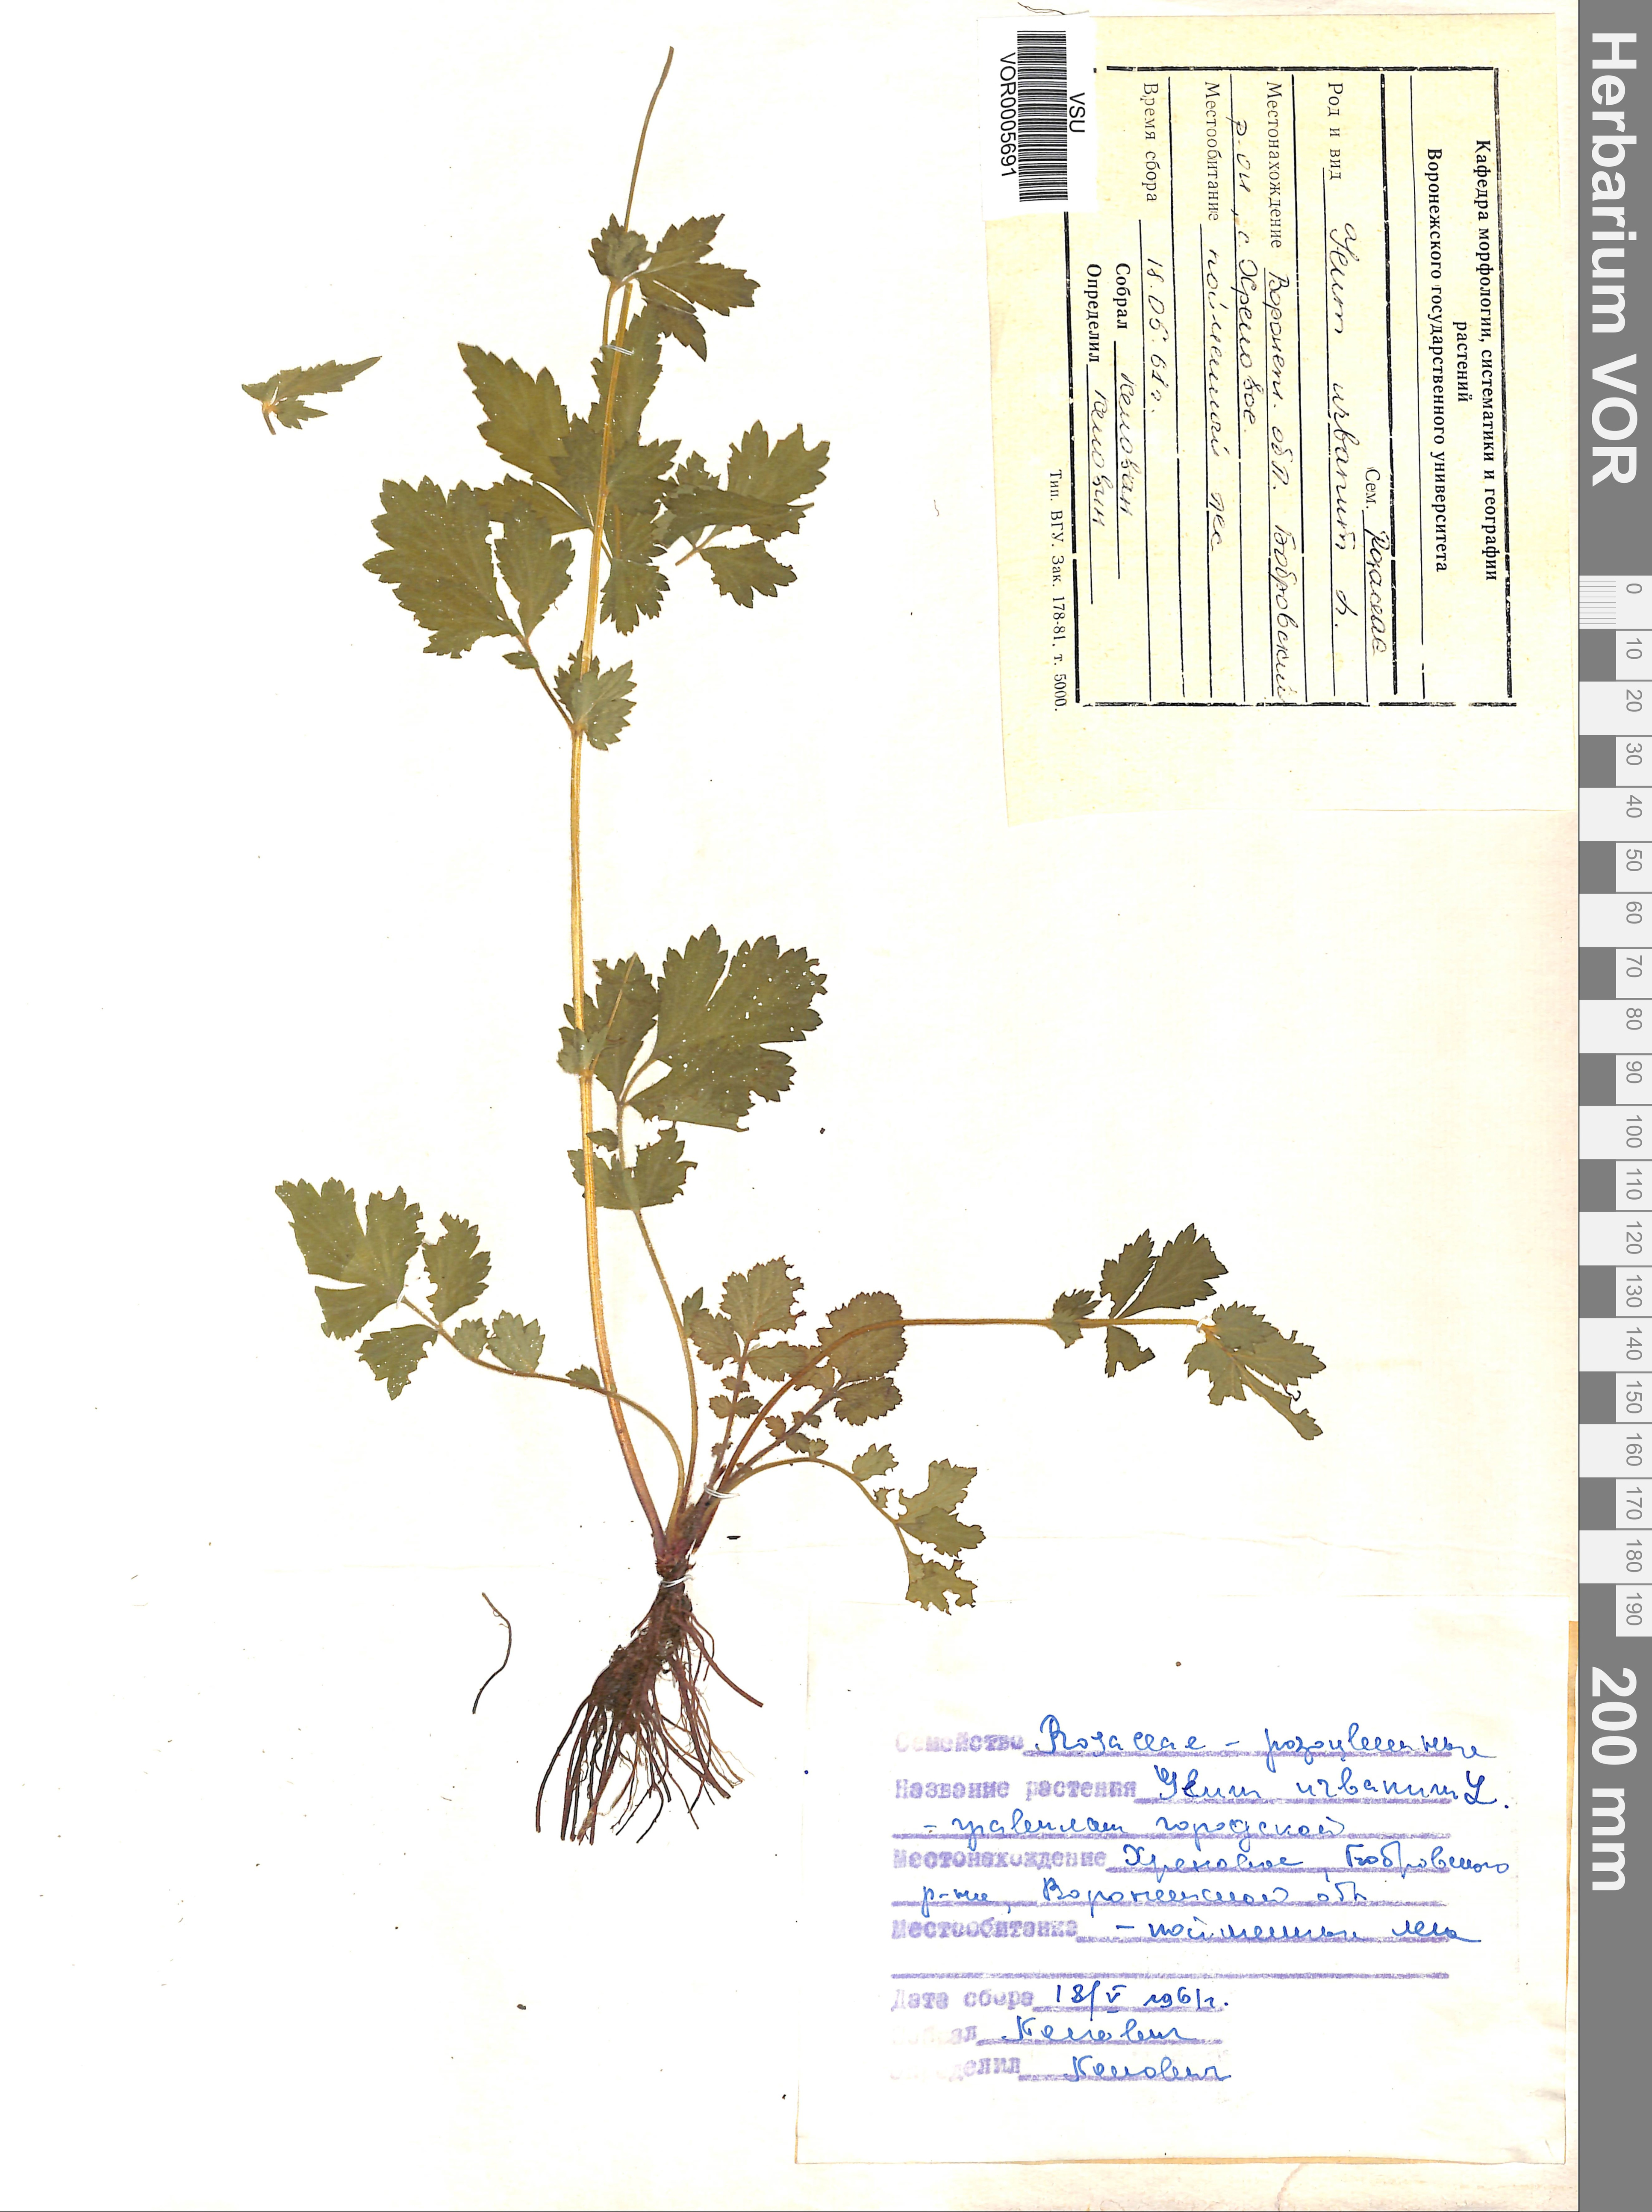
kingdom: Plantae
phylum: Tracheophyta
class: Magnoliopsida
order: Rosales
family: Rosaceae
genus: Geum
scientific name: Geum urbanum
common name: Wood avens
